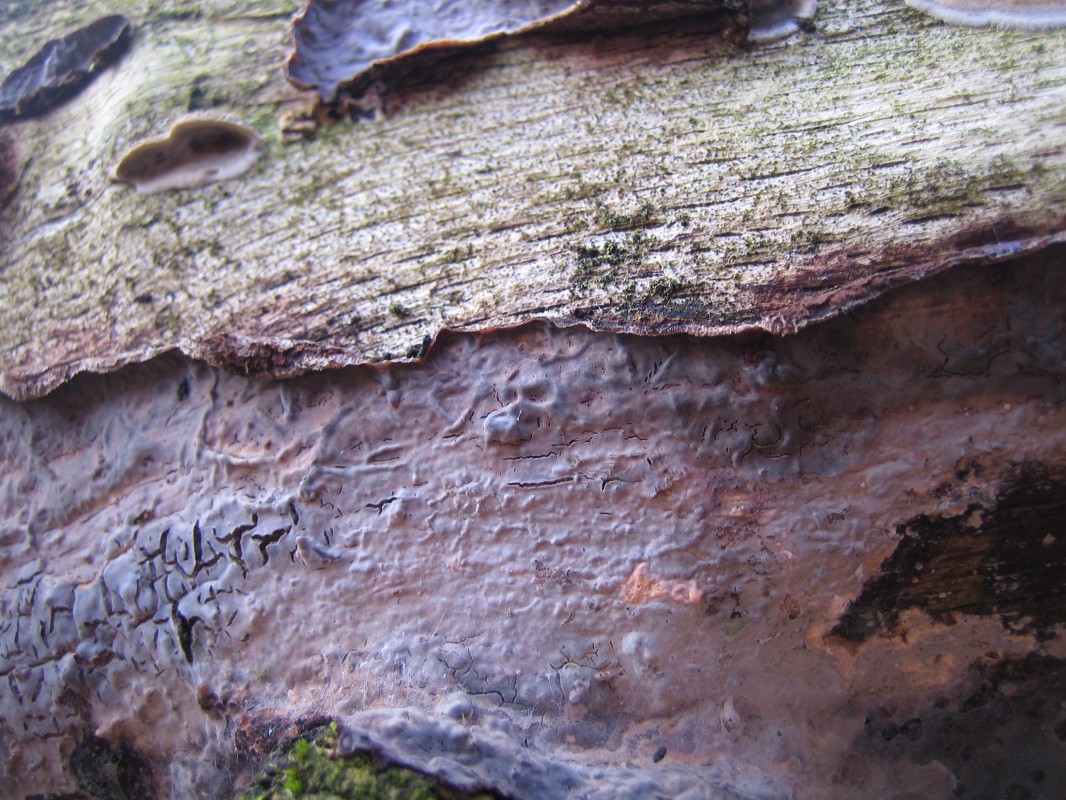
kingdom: Fungi
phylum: Basidiomycota
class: Agaricomycetes
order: Russulales
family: Peniophoraceae
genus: Peniophora
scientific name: Peniophora quercina
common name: ege-voksskind
